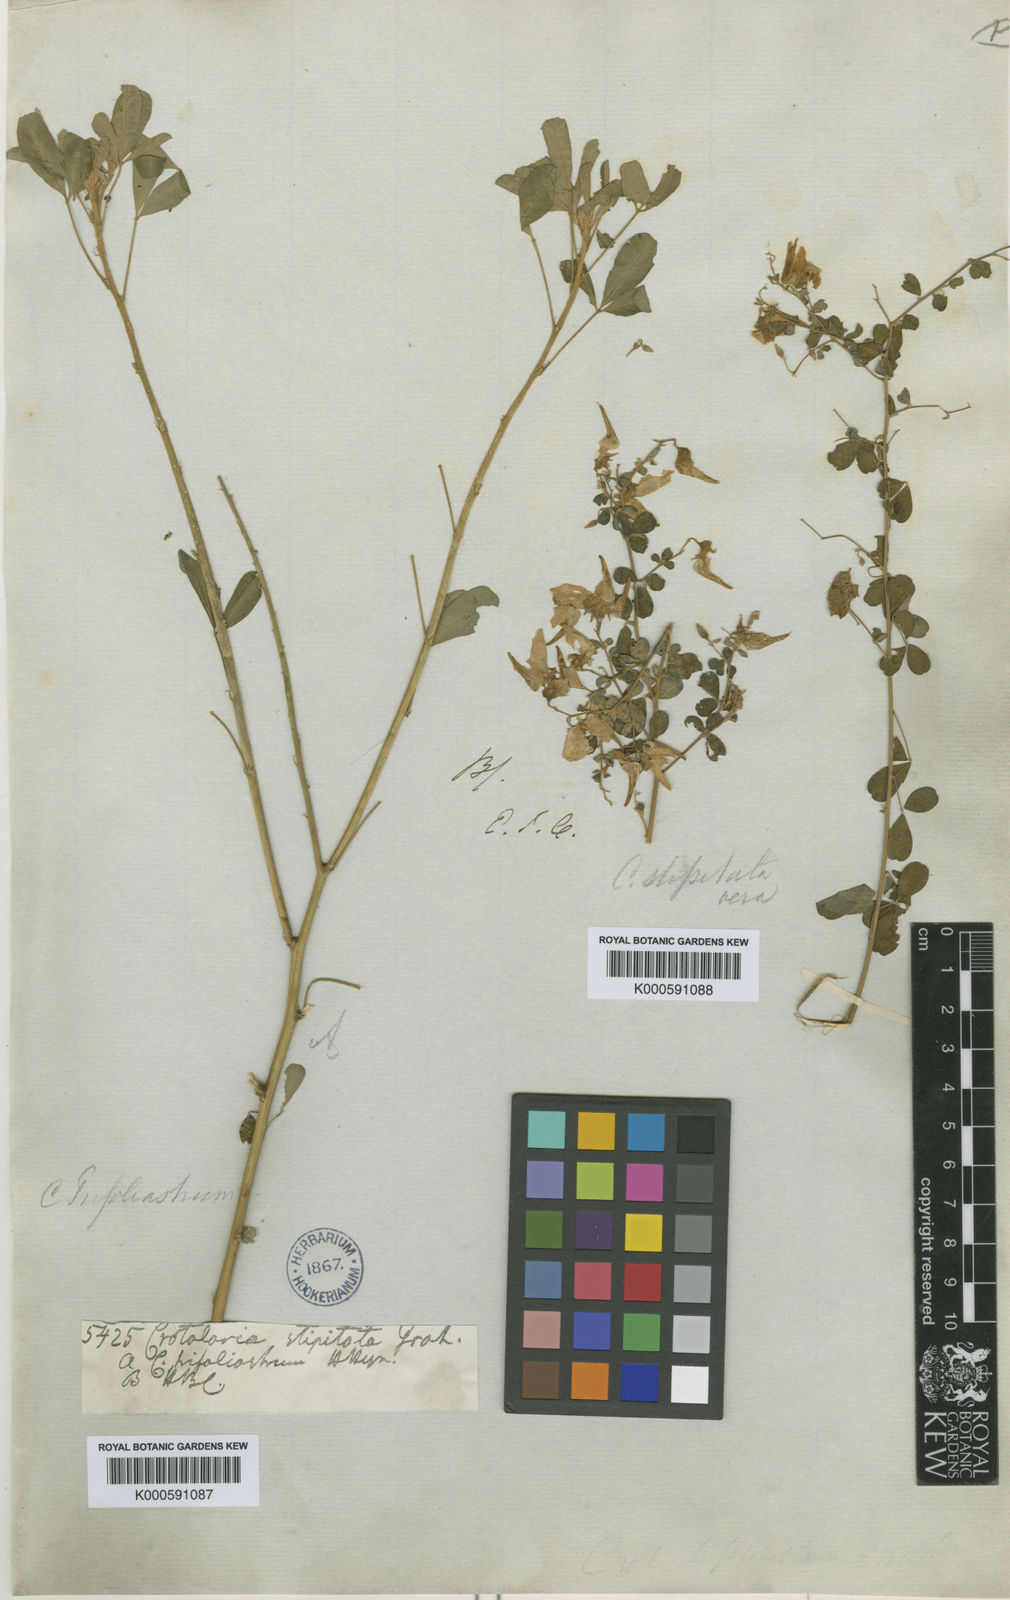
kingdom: Plantae
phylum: Tracheophyta
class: Magnoliopsida
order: Fabales
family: Fabaceae
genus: Crotalaria
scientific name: Crotalaria laevigata
